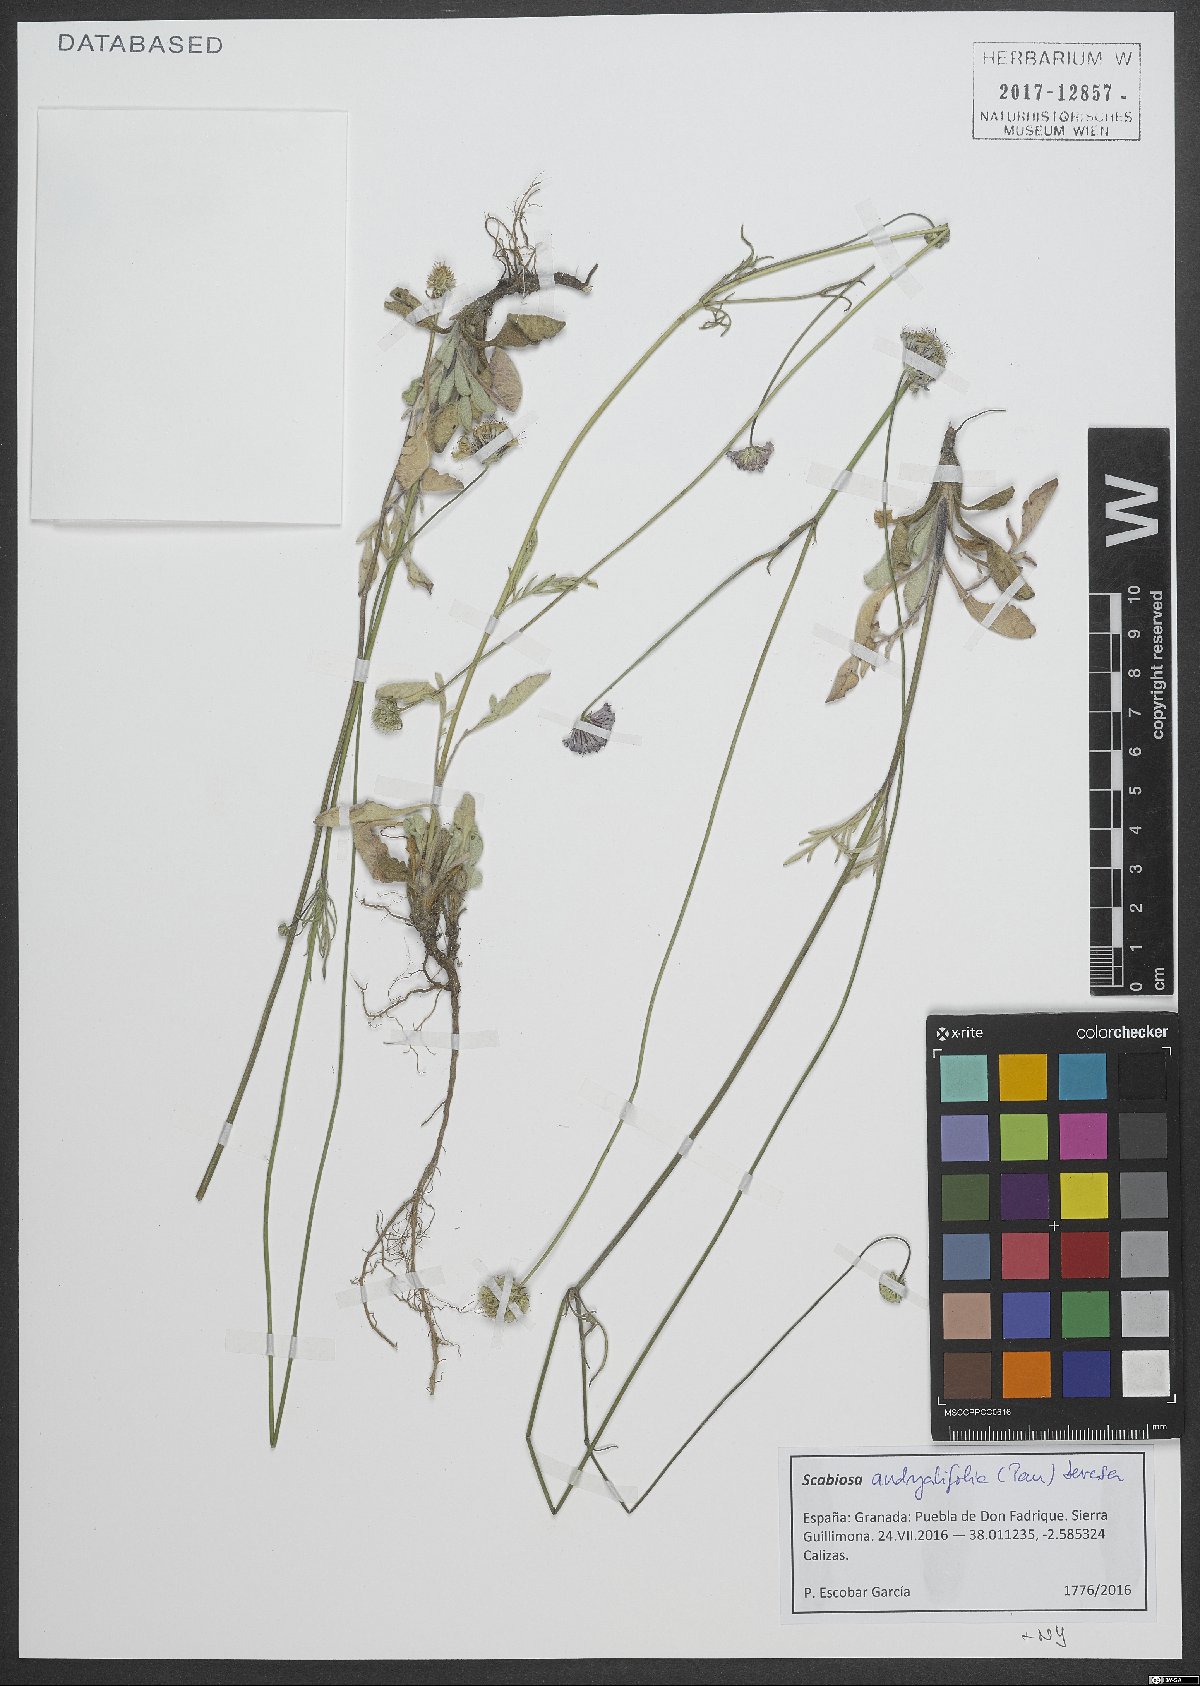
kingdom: Plantae
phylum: Tracheophyta
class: Magnoliopsida
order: Dipsacales
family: Caprifoliaceae
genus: Scabiosa
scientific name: Scabiosa andryalifolia
